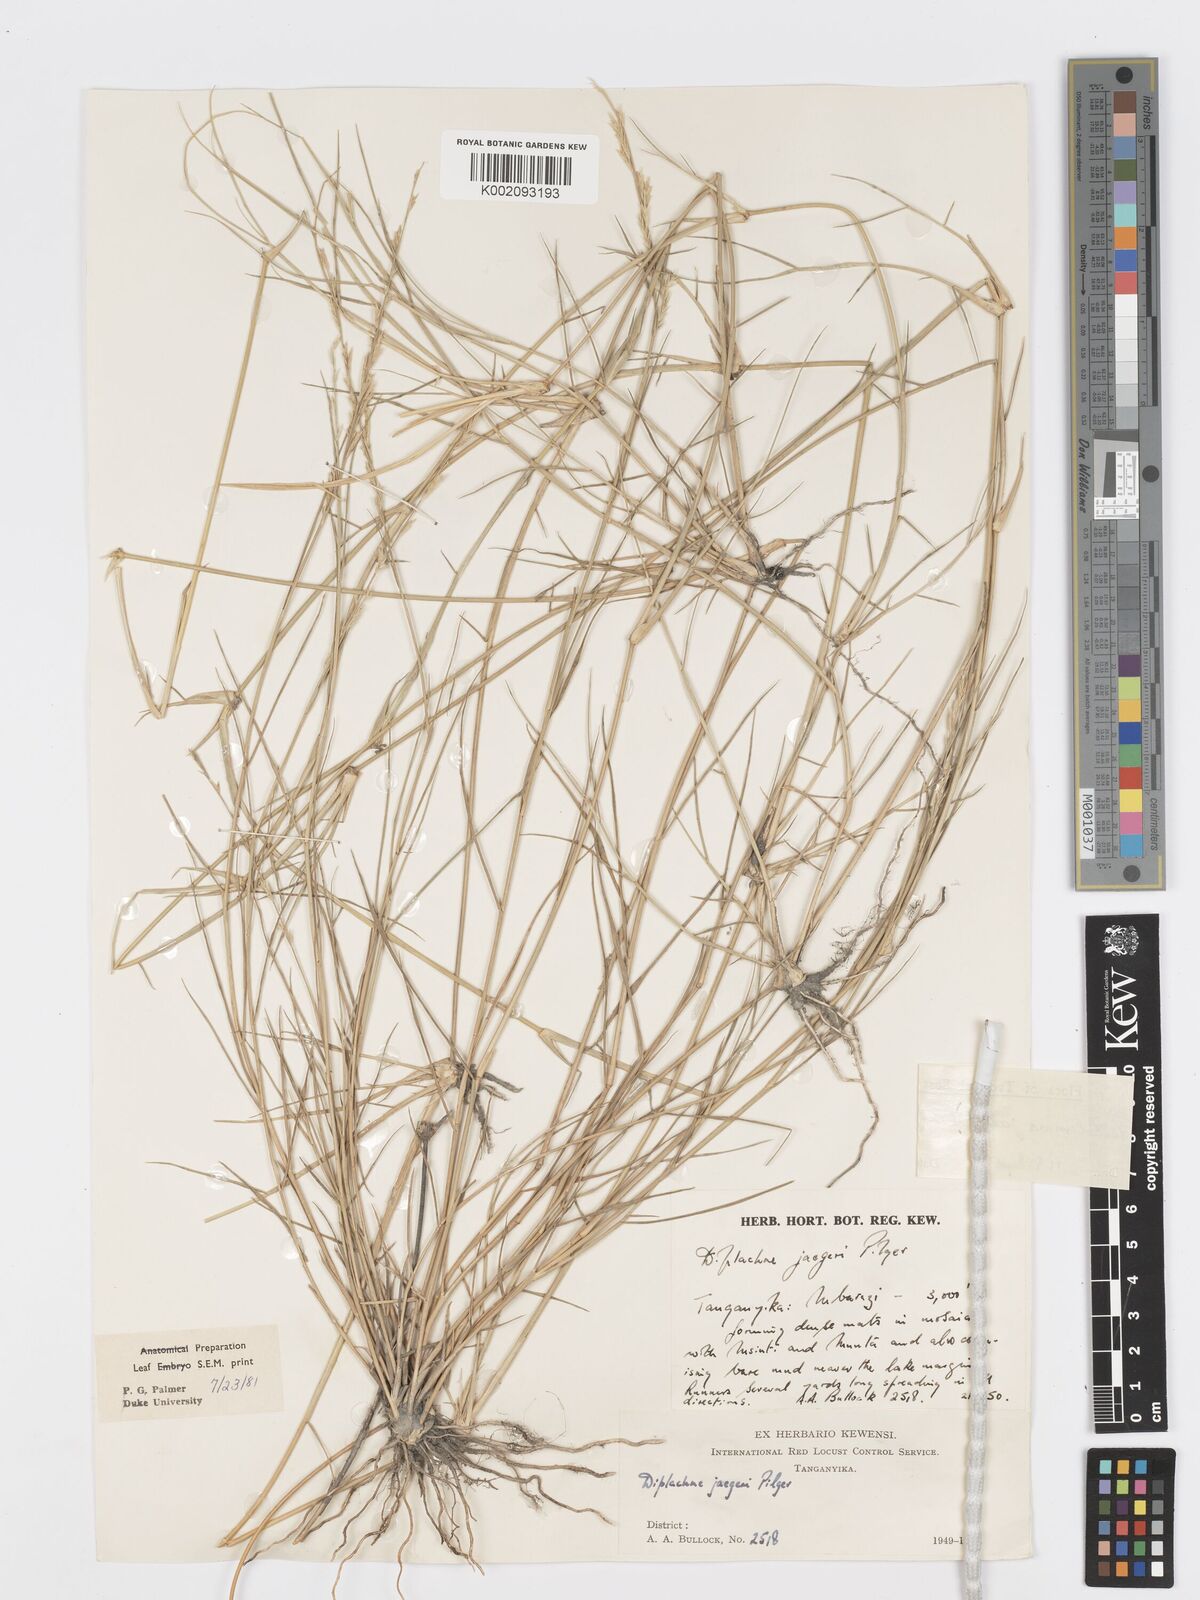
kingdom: Plantae
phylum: Tracheophyta
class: Liliopsida
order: Poales
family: Poaceae
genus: Psilolemma
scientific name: Psilolemma jaegeri
